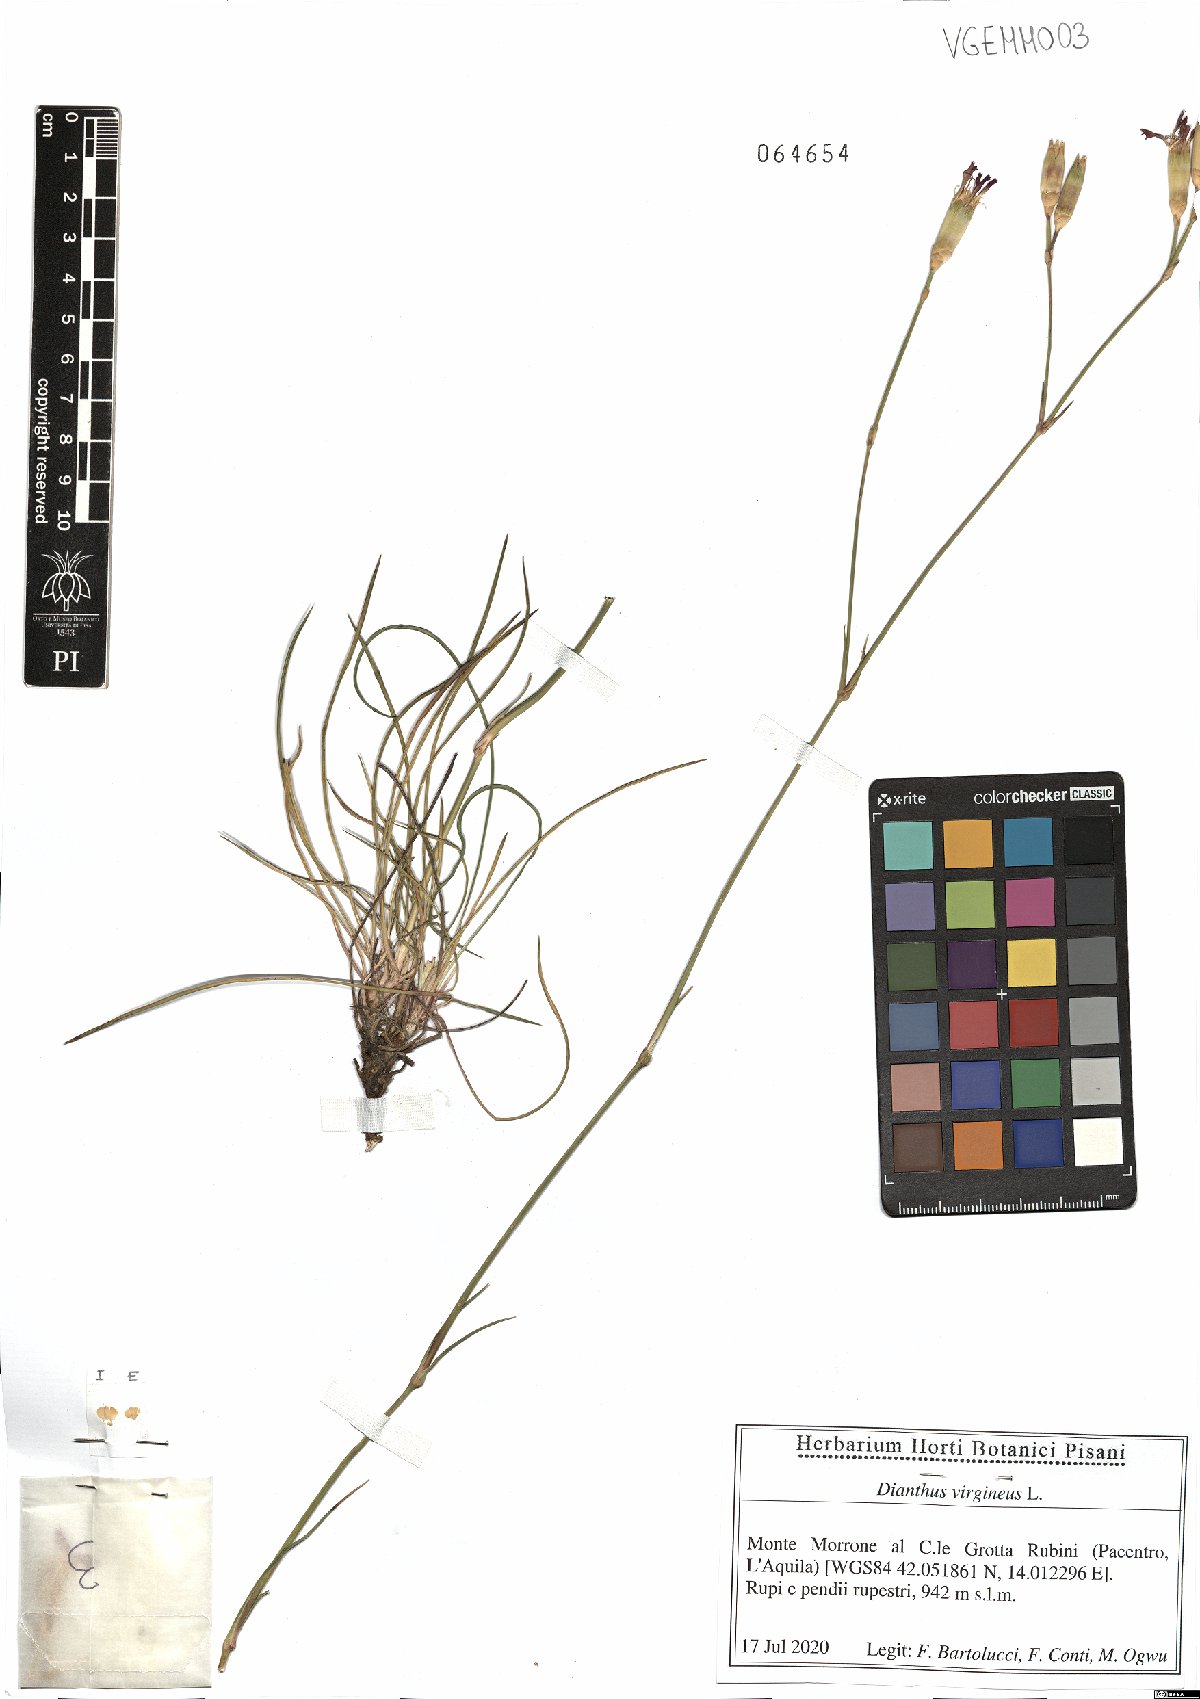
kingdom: Plantae
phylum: Tracheophyta
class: Magnoliopsida
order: Caryophyllales
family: Caryophyllaceae
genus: Dianthus
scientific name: Dianthus virgineus
